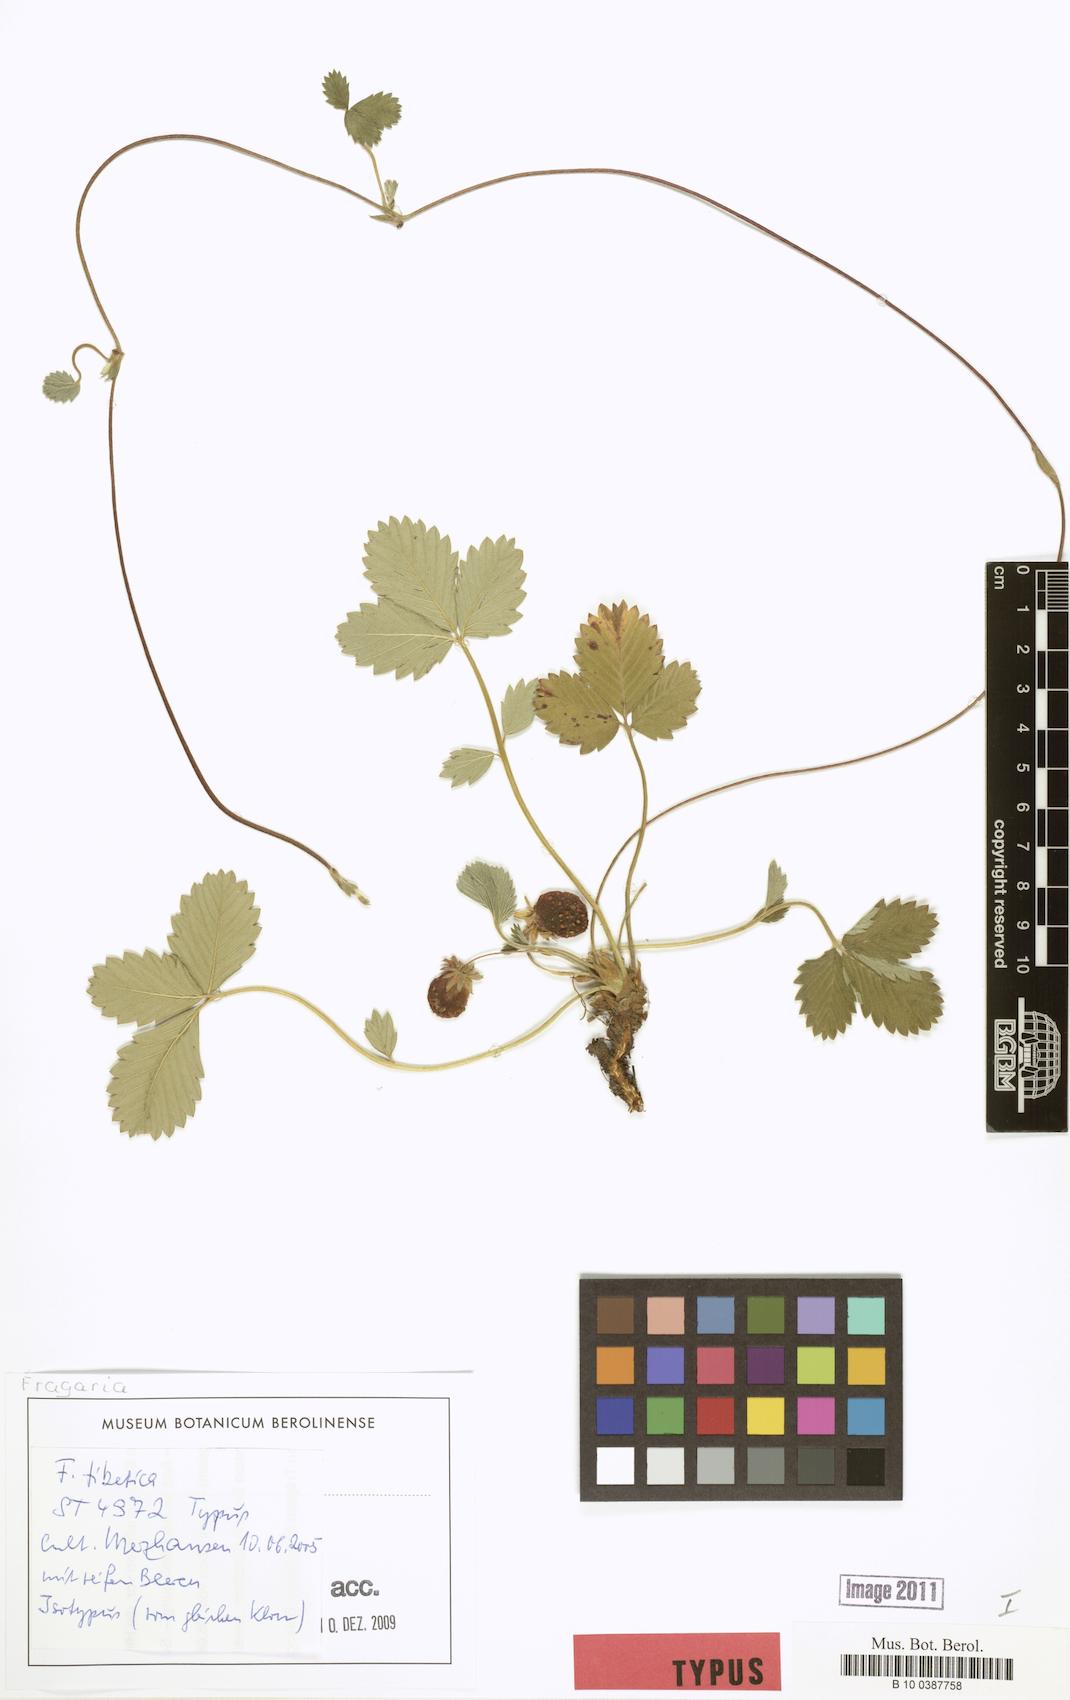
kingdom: Plantae
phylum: Tracheophyta
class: Magnoliopsida
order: Rosales
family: Rosaceae
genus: Fragaria
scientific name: Fragaria tibetica
